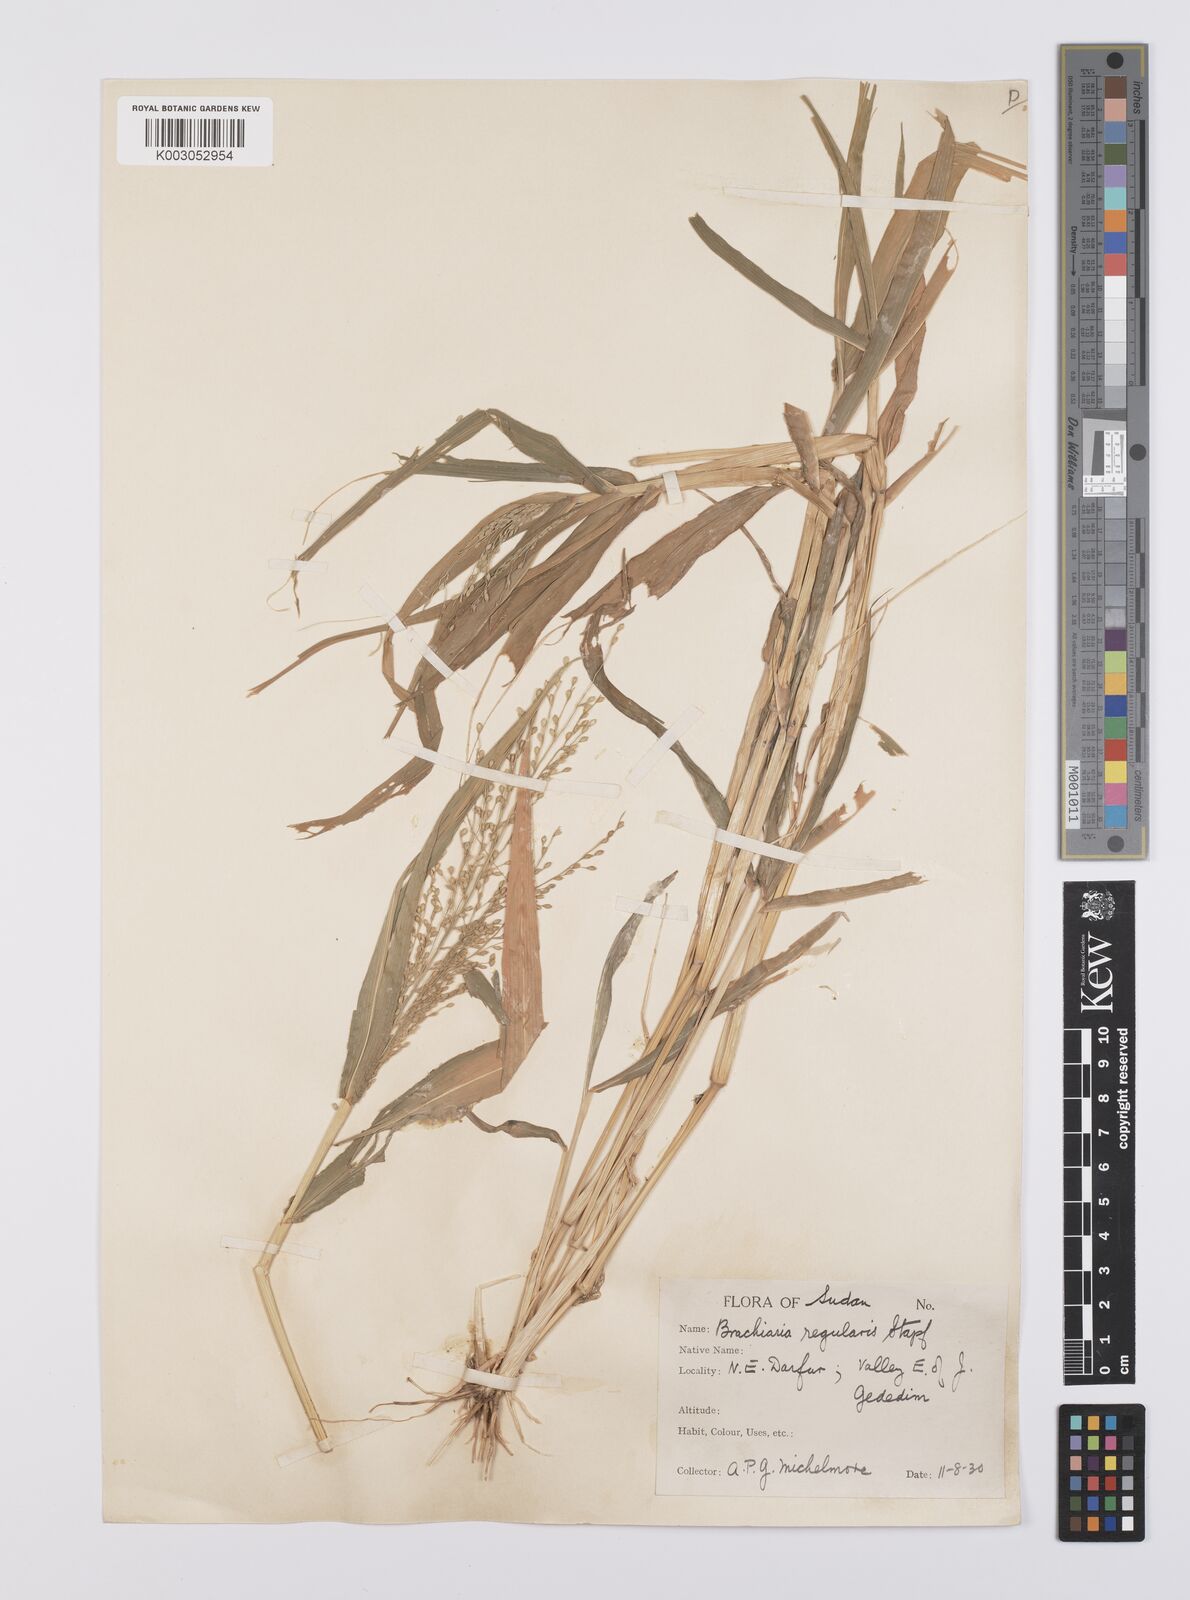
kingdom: Plantae
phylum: Tracheophyta
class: Liliopsida
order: Poales
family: Poaceae
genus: Urochloa
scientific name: Urochloa deflexa
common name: Guinea millet
